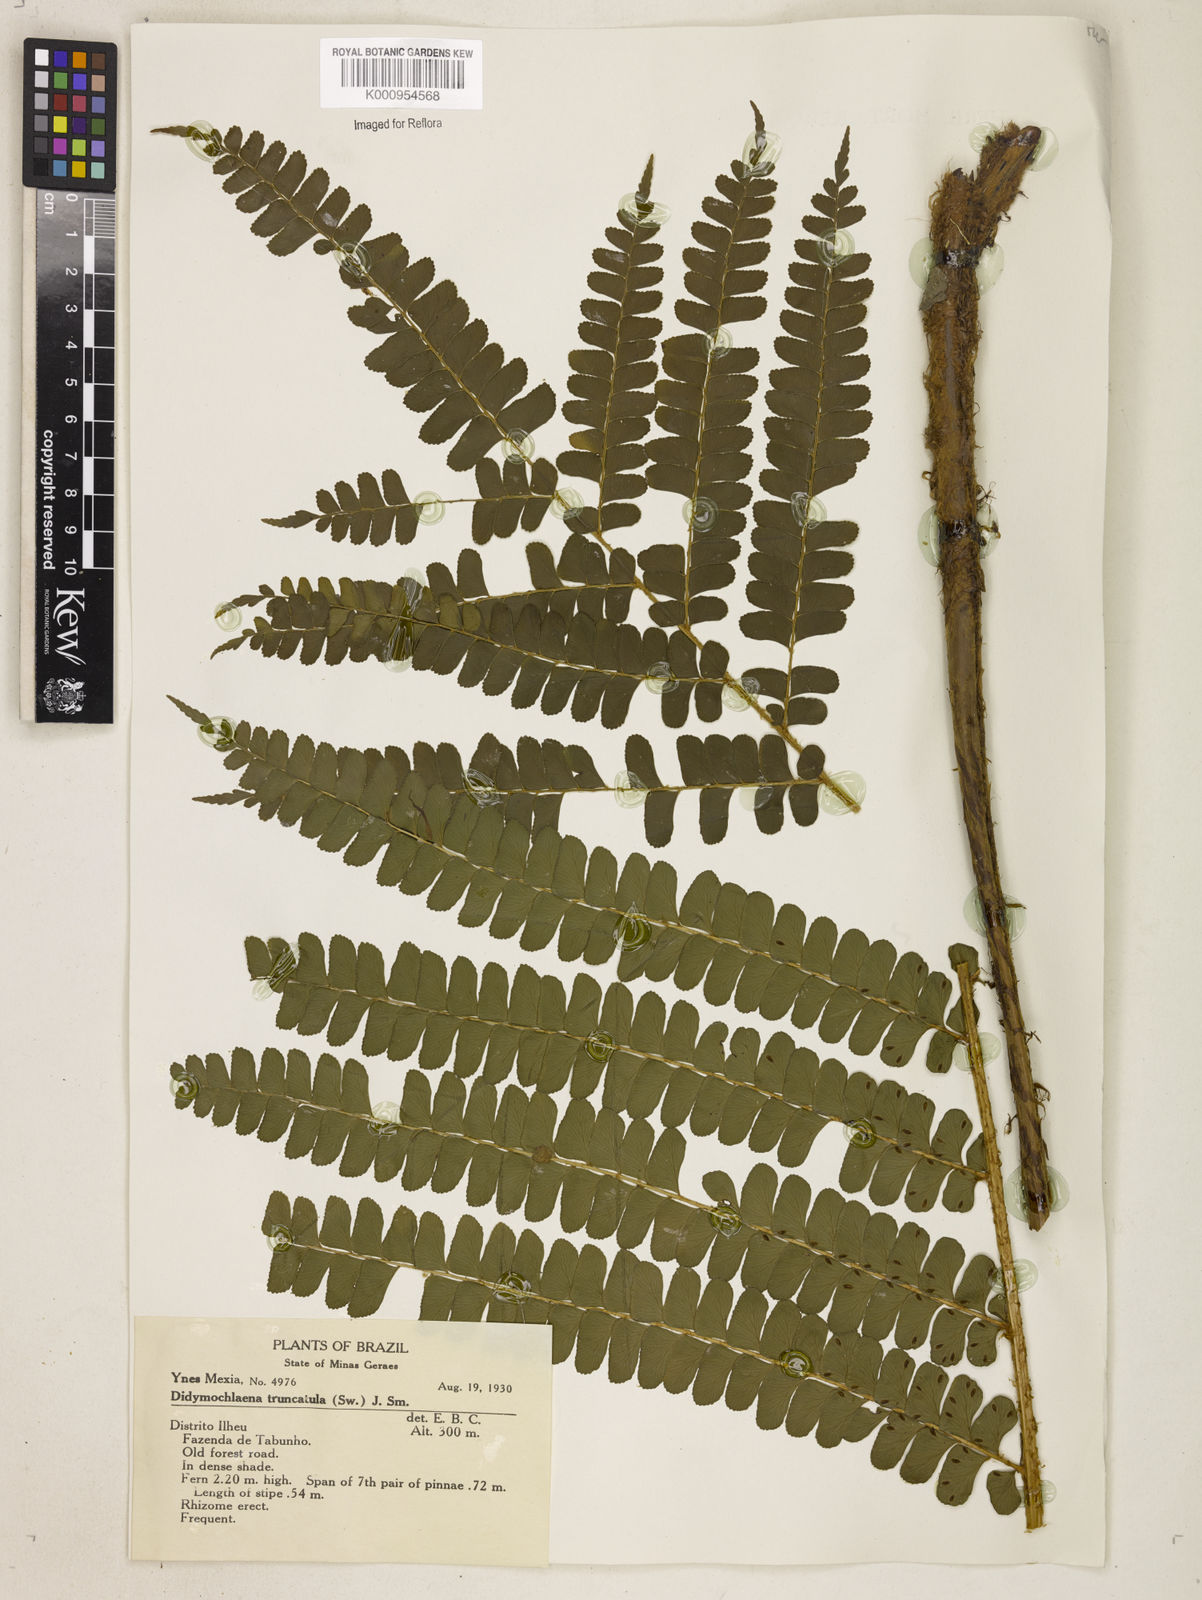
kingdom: Plantae
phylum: Tracheophyta
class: Polypodiopsida
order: Polypodiales
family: Didymochlaenaceae
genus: Didymochlaena
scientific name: Didymochlaena truncatula
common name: Mahogany fern
